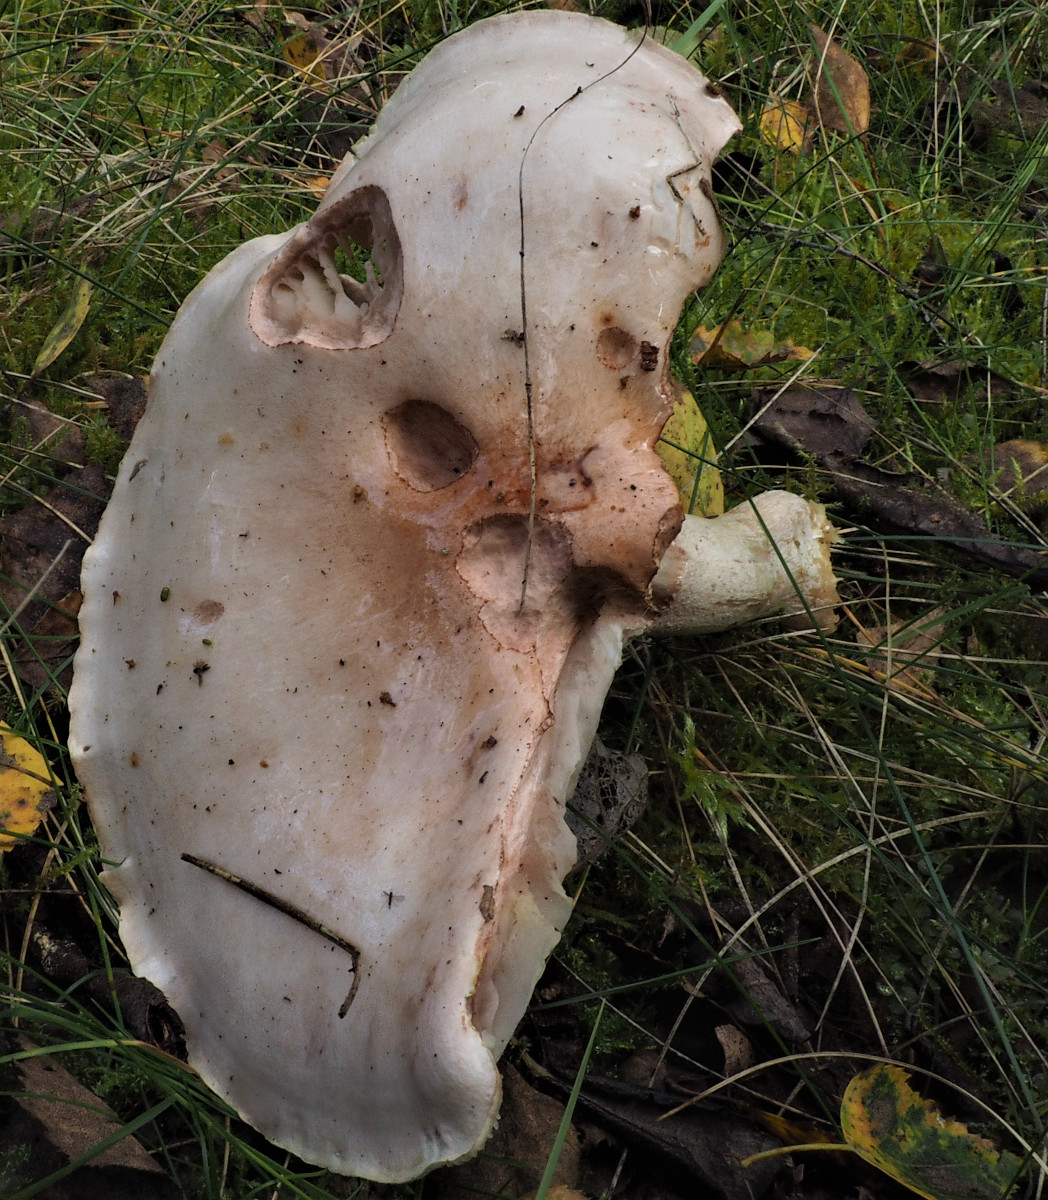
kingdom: Fungi
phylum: Basidiomycota
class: Agaricomycetes
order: Agaricales
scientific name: Agaricales
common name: champignonordenen
